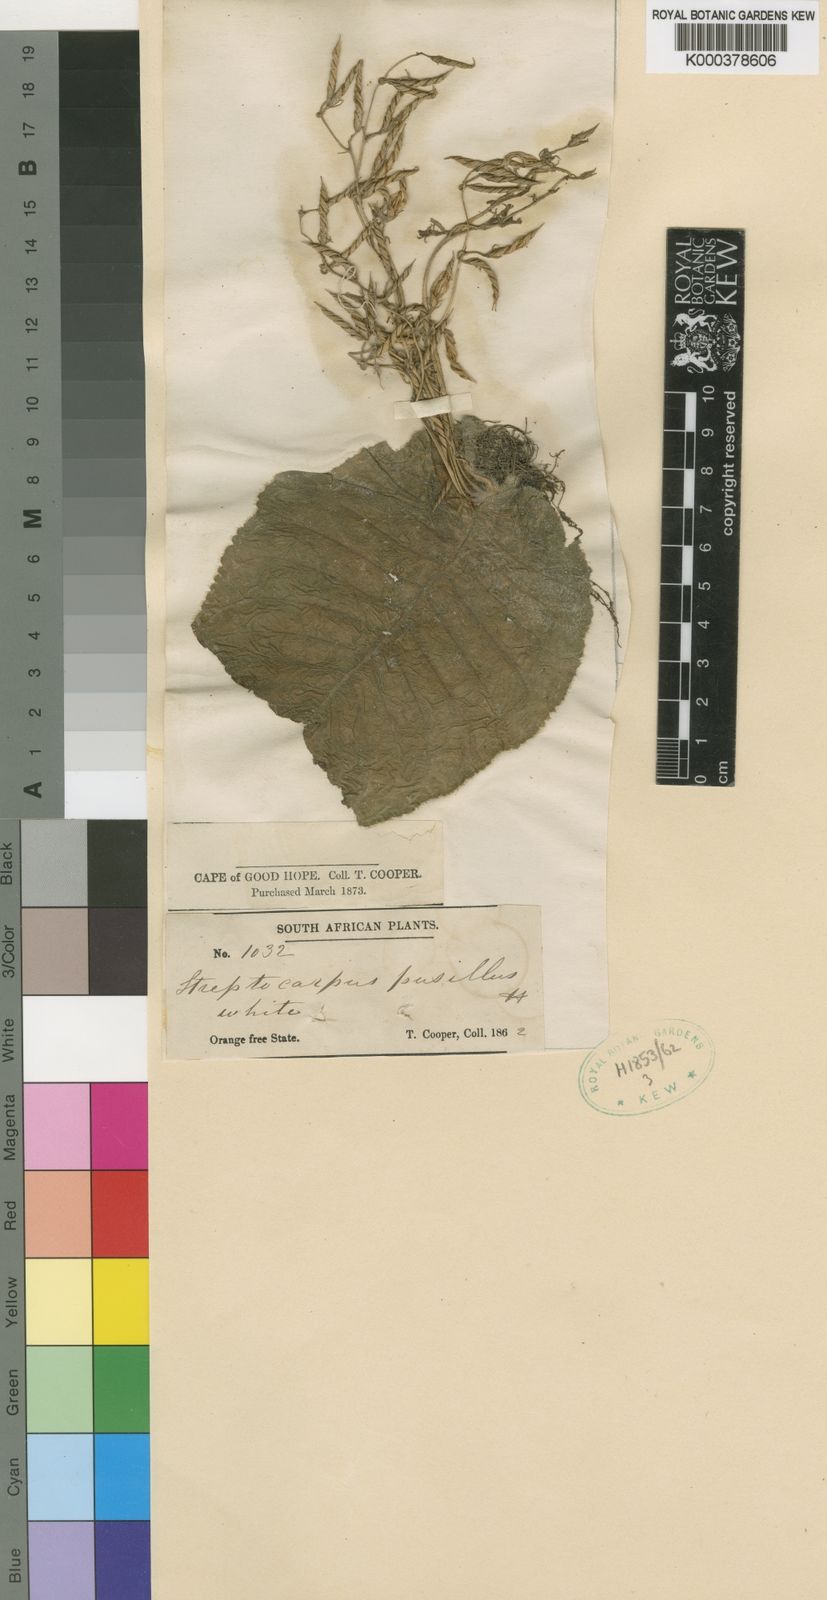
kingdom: Plantae
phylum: Tracheophyta
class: Magnoliopsida
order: Lamiales
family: Gesneriaceae
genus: Streptocarpus
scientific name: Streptocarpus pusillus
